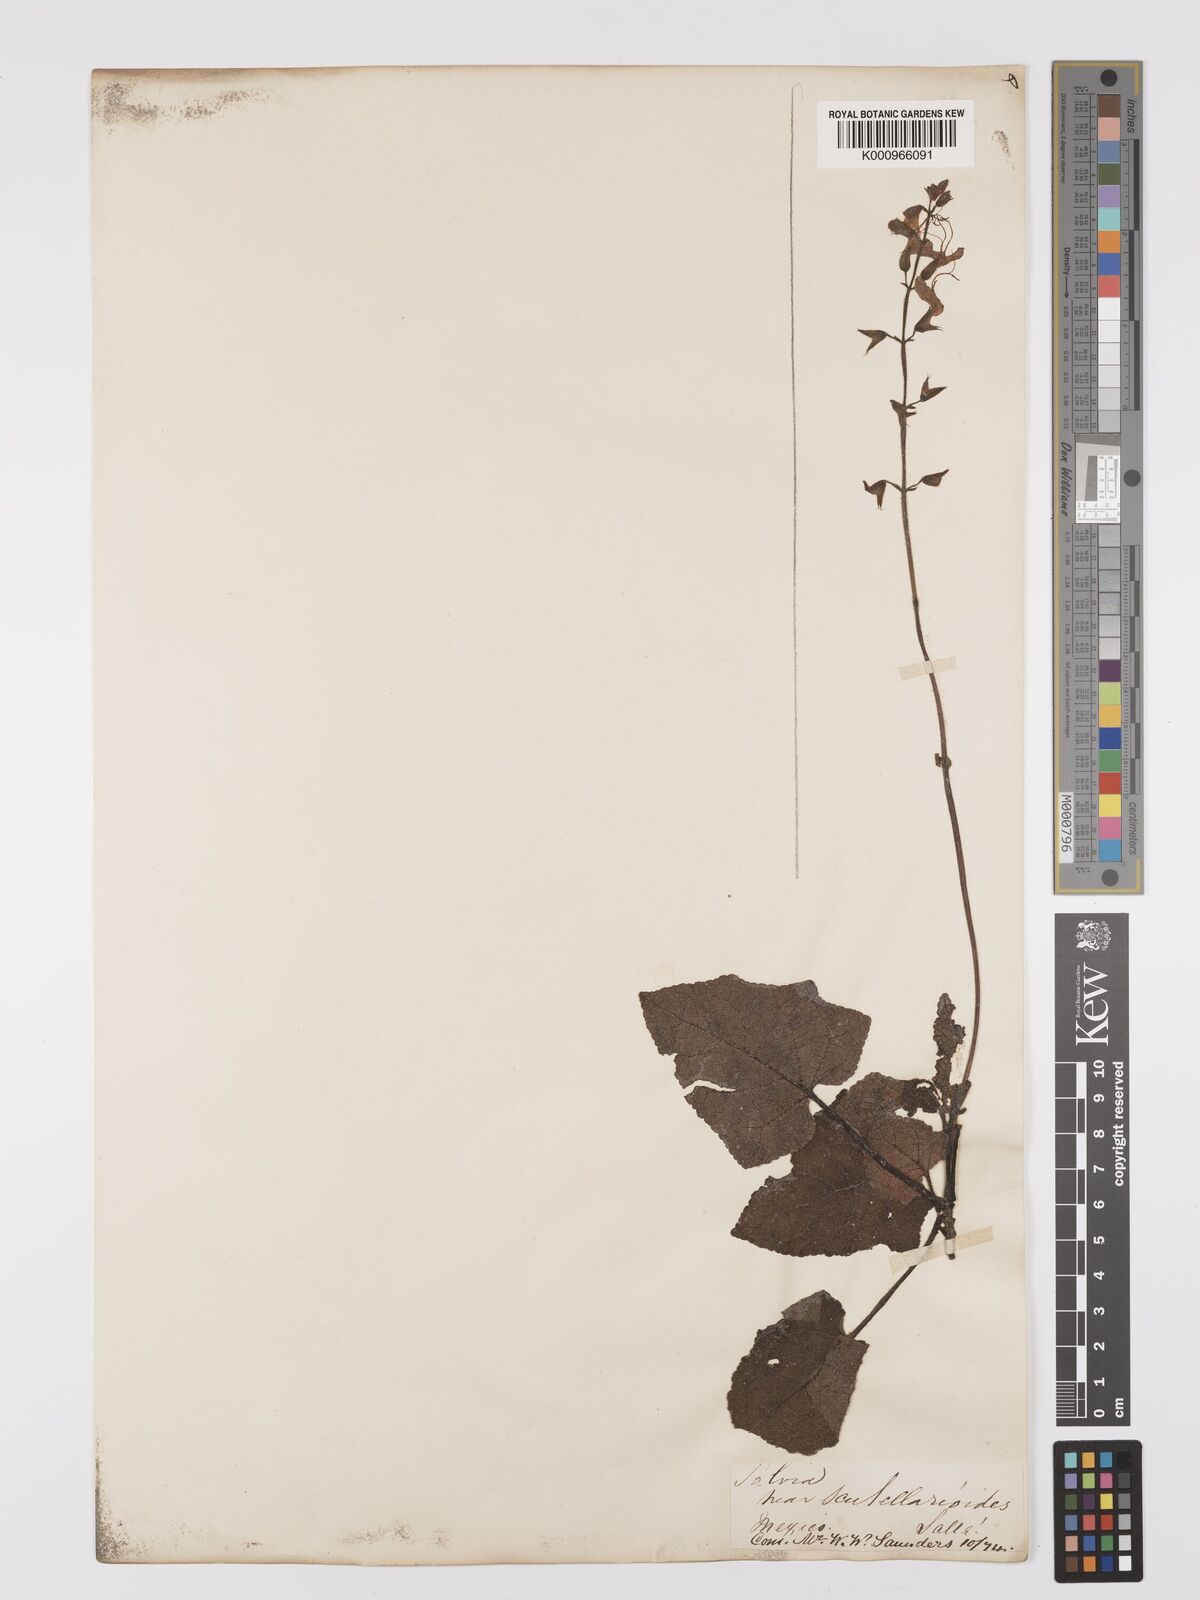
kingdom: Plantae
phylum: Tracheophyta
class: Magnoliopsida
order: Lamiales
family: Lamiaceae
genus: Salvia
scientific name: Salvia vitifolia
